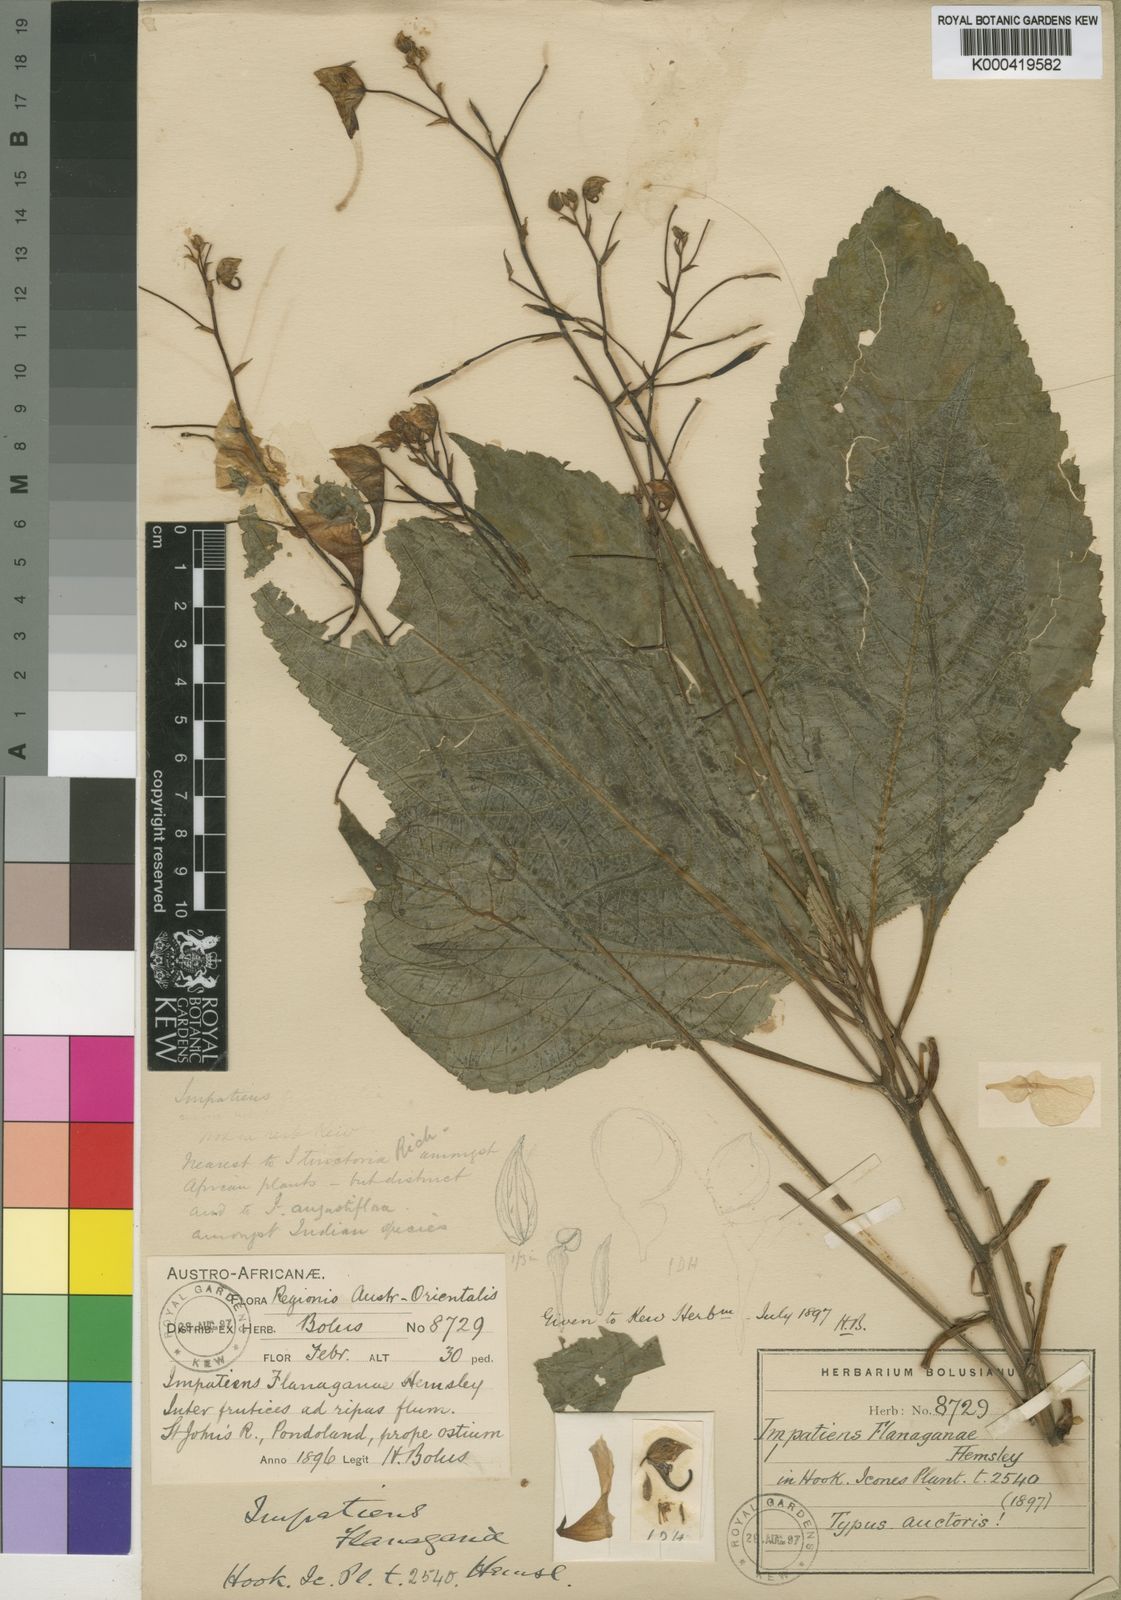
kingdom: Plantae
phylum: Tracheophyta
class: Magnoliopsida
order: Ericales
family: Balsaminaceae
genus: Impatiens
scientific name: Impatiens flanaganiae
